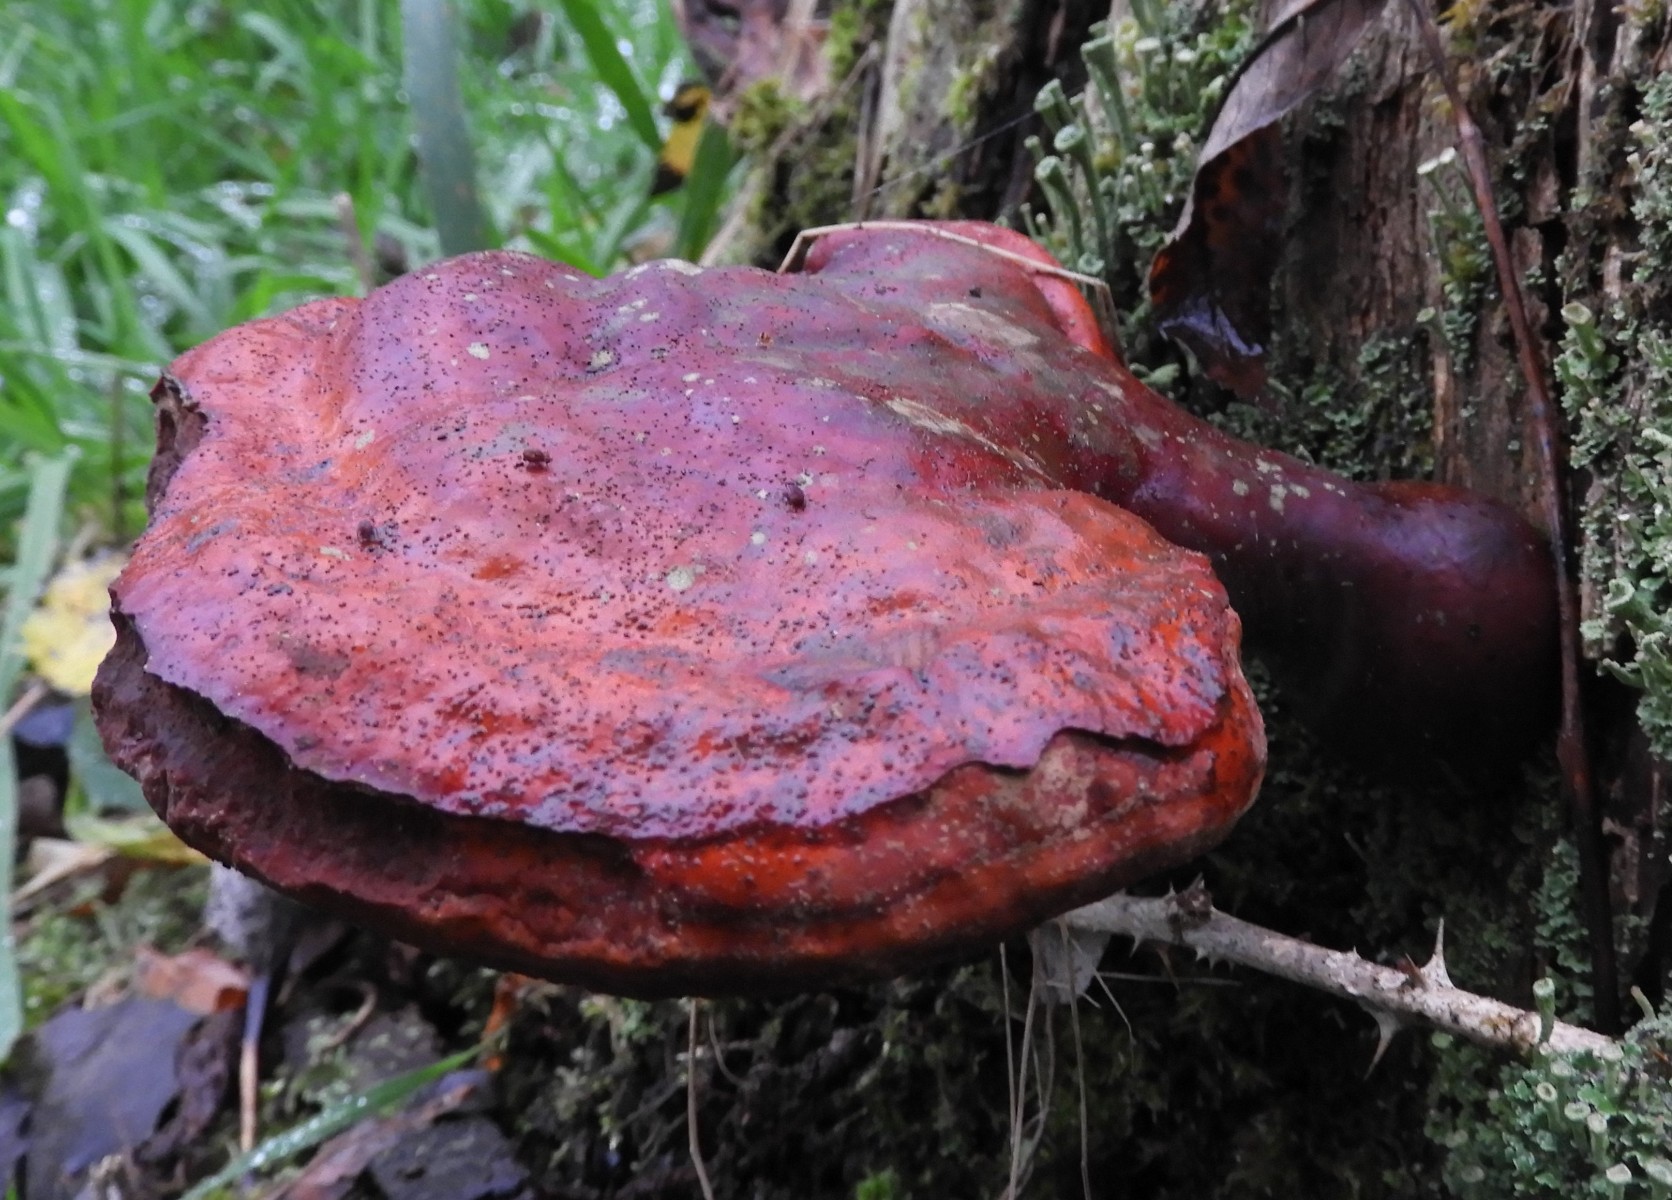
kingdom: Fungi
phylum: Basidiomycota
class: Agaricomycetes
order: Polyporales
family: Polyporaceae
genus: Ganoderma
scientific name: Ganoderma lucidum
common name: skinnende lakporesvamp
